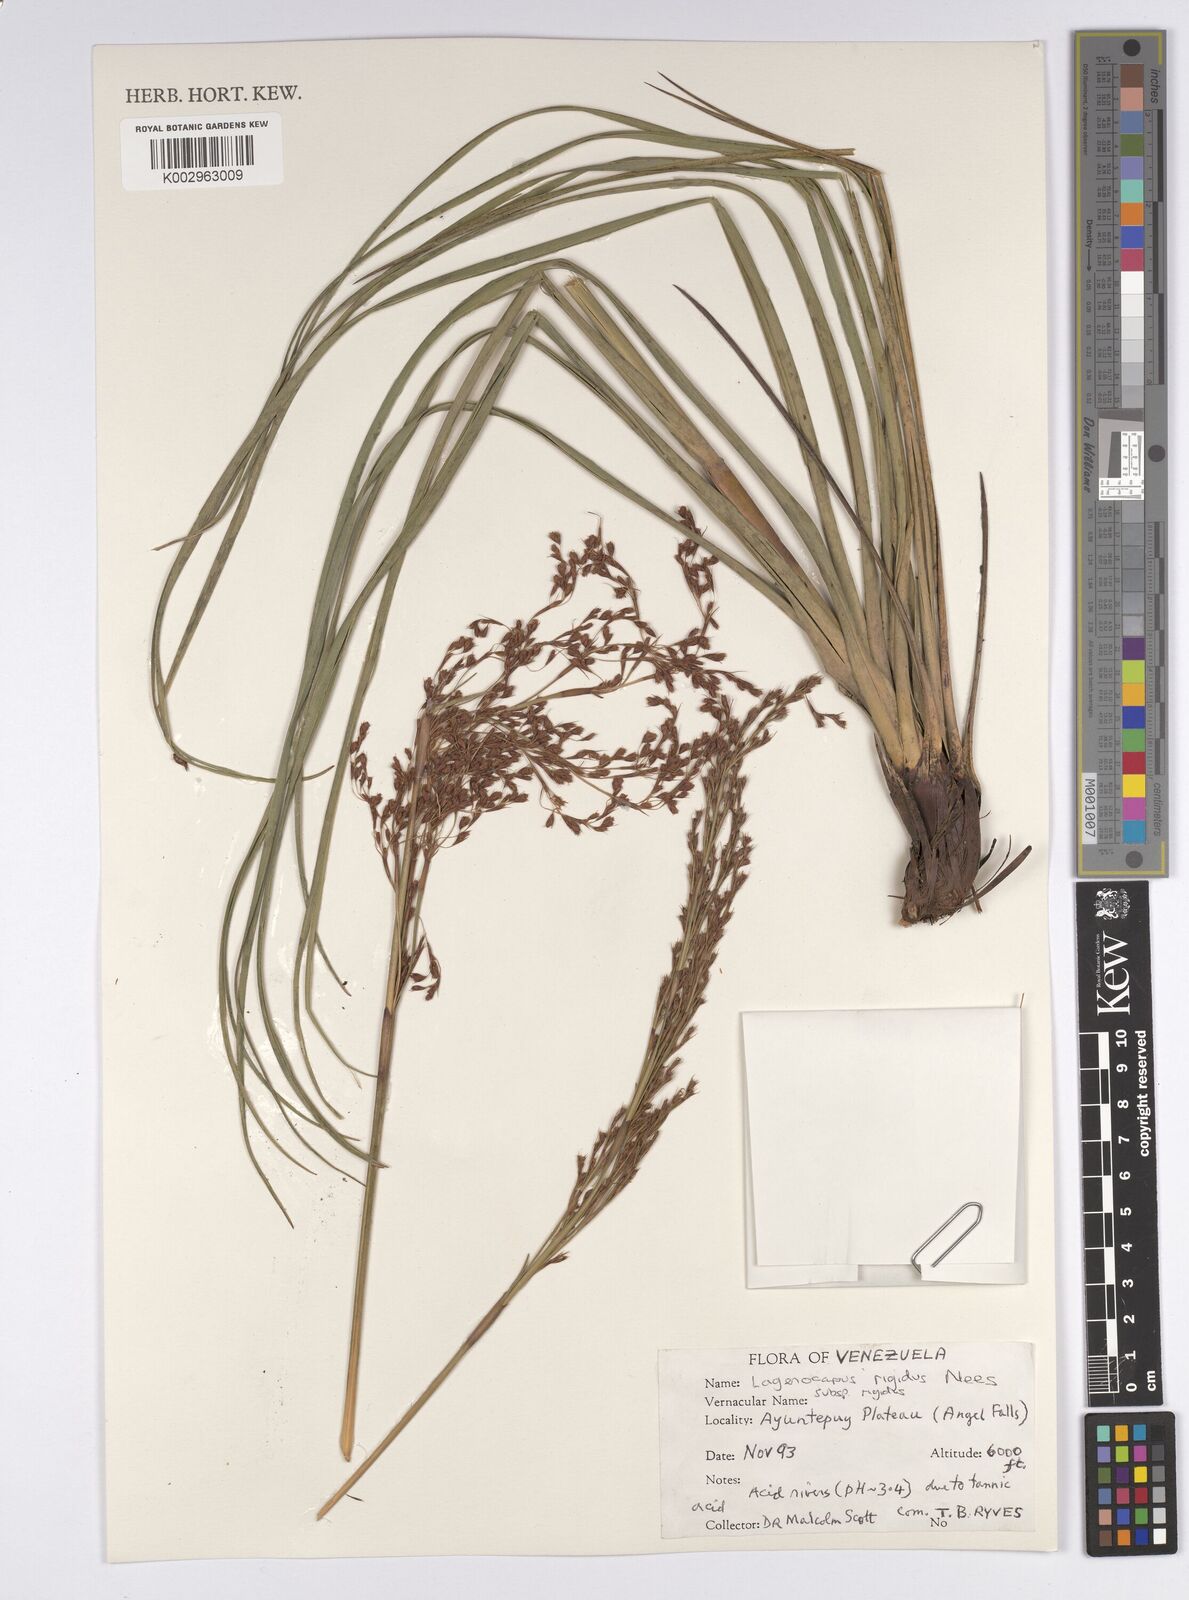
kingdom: Plantae
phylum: Tracheophyta
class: Liliopsida
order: Poales
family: Cyperaceae
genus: Lagenocarpus
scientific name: Lagenocarpus rigidus
